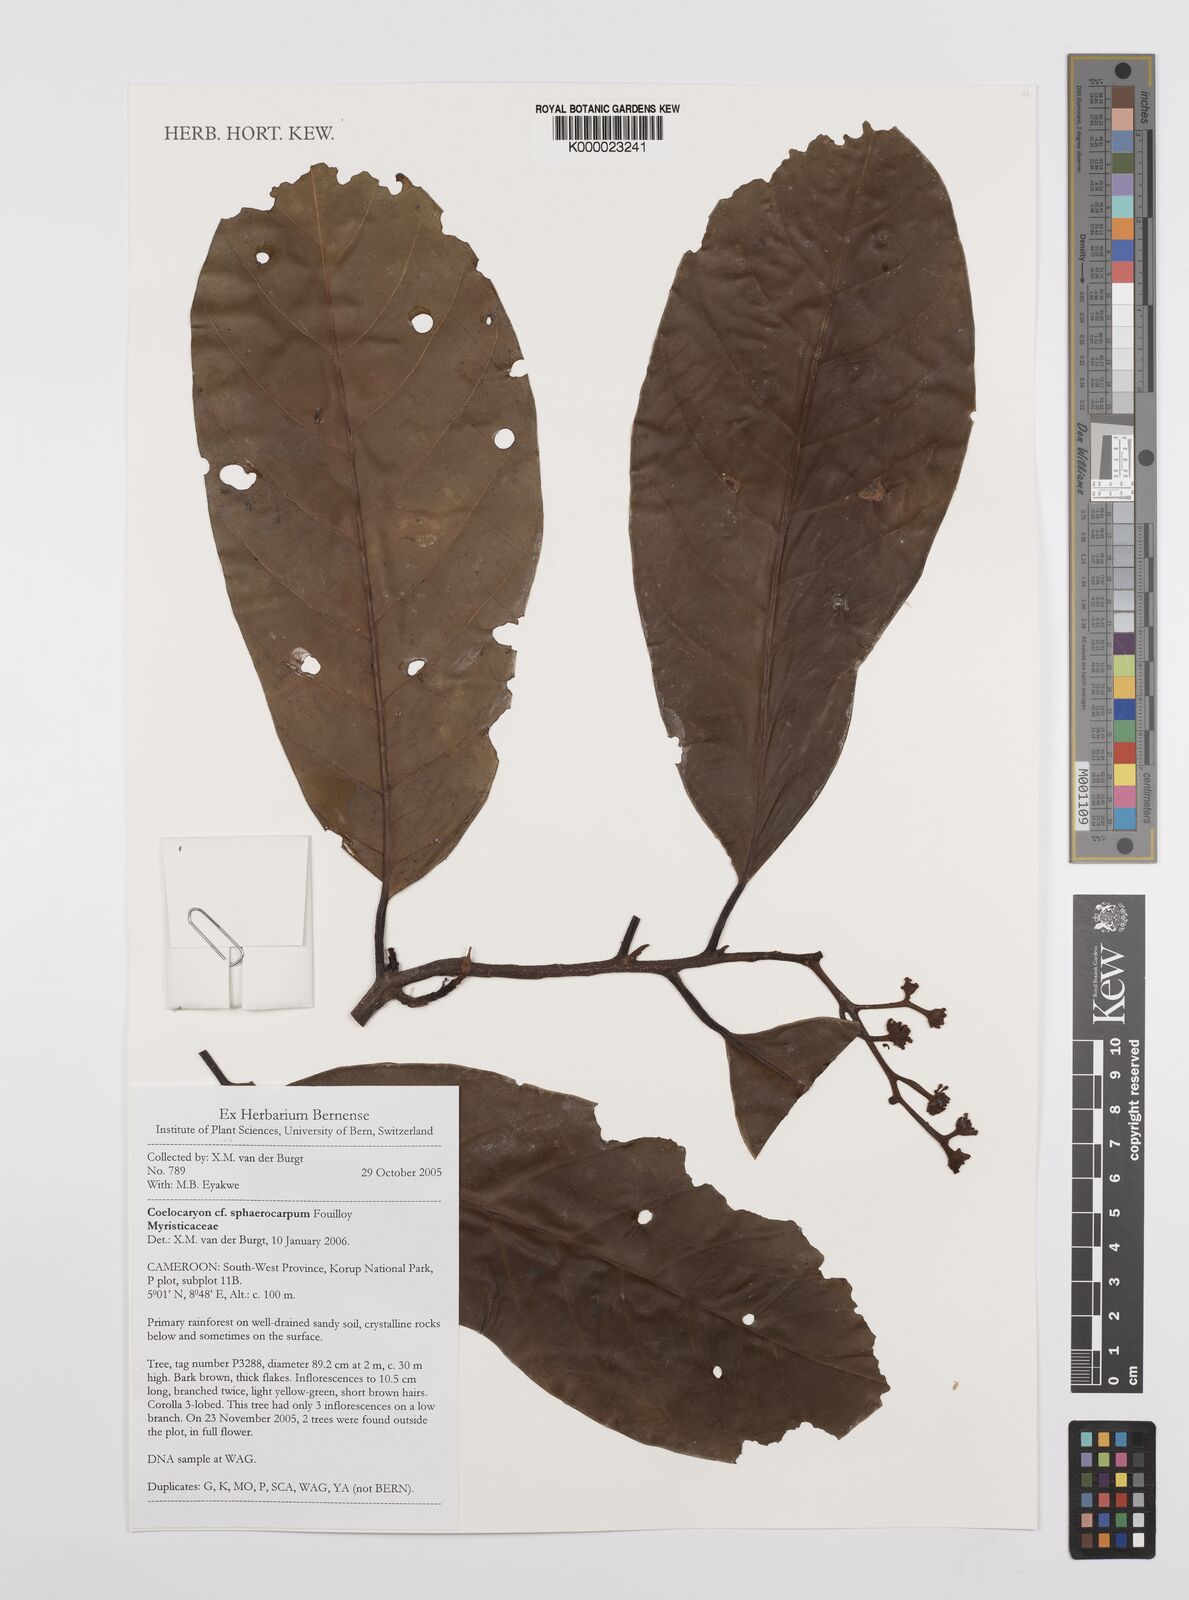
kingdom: Plantae
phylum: Tracheophyta
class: Magnoliopsida
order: Magnoliales
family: Myristicaceae
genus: Coelocaryon
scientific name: Coelocaryon sphaerocarpum
